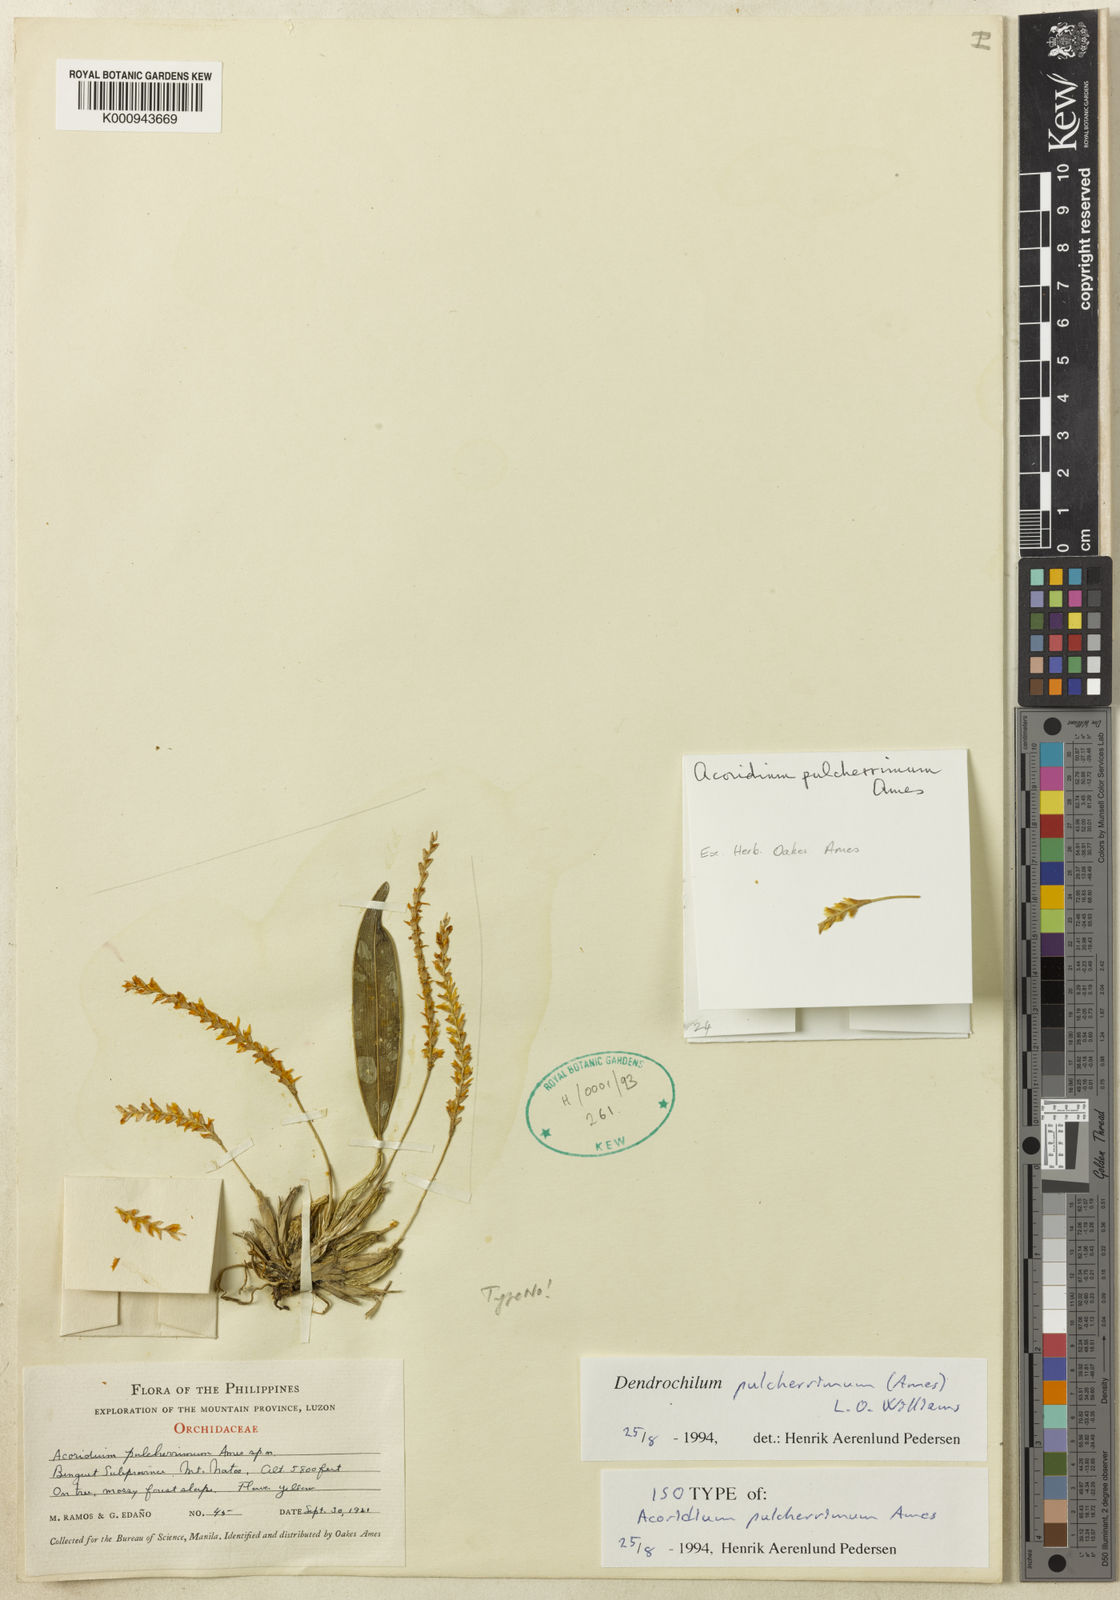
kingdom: Plantae
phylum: Tracheophyta
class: Liliopsida
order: Asparagales
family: Orchidaceae
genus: Coelogyne
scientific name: Coelogyne pulcherrima
